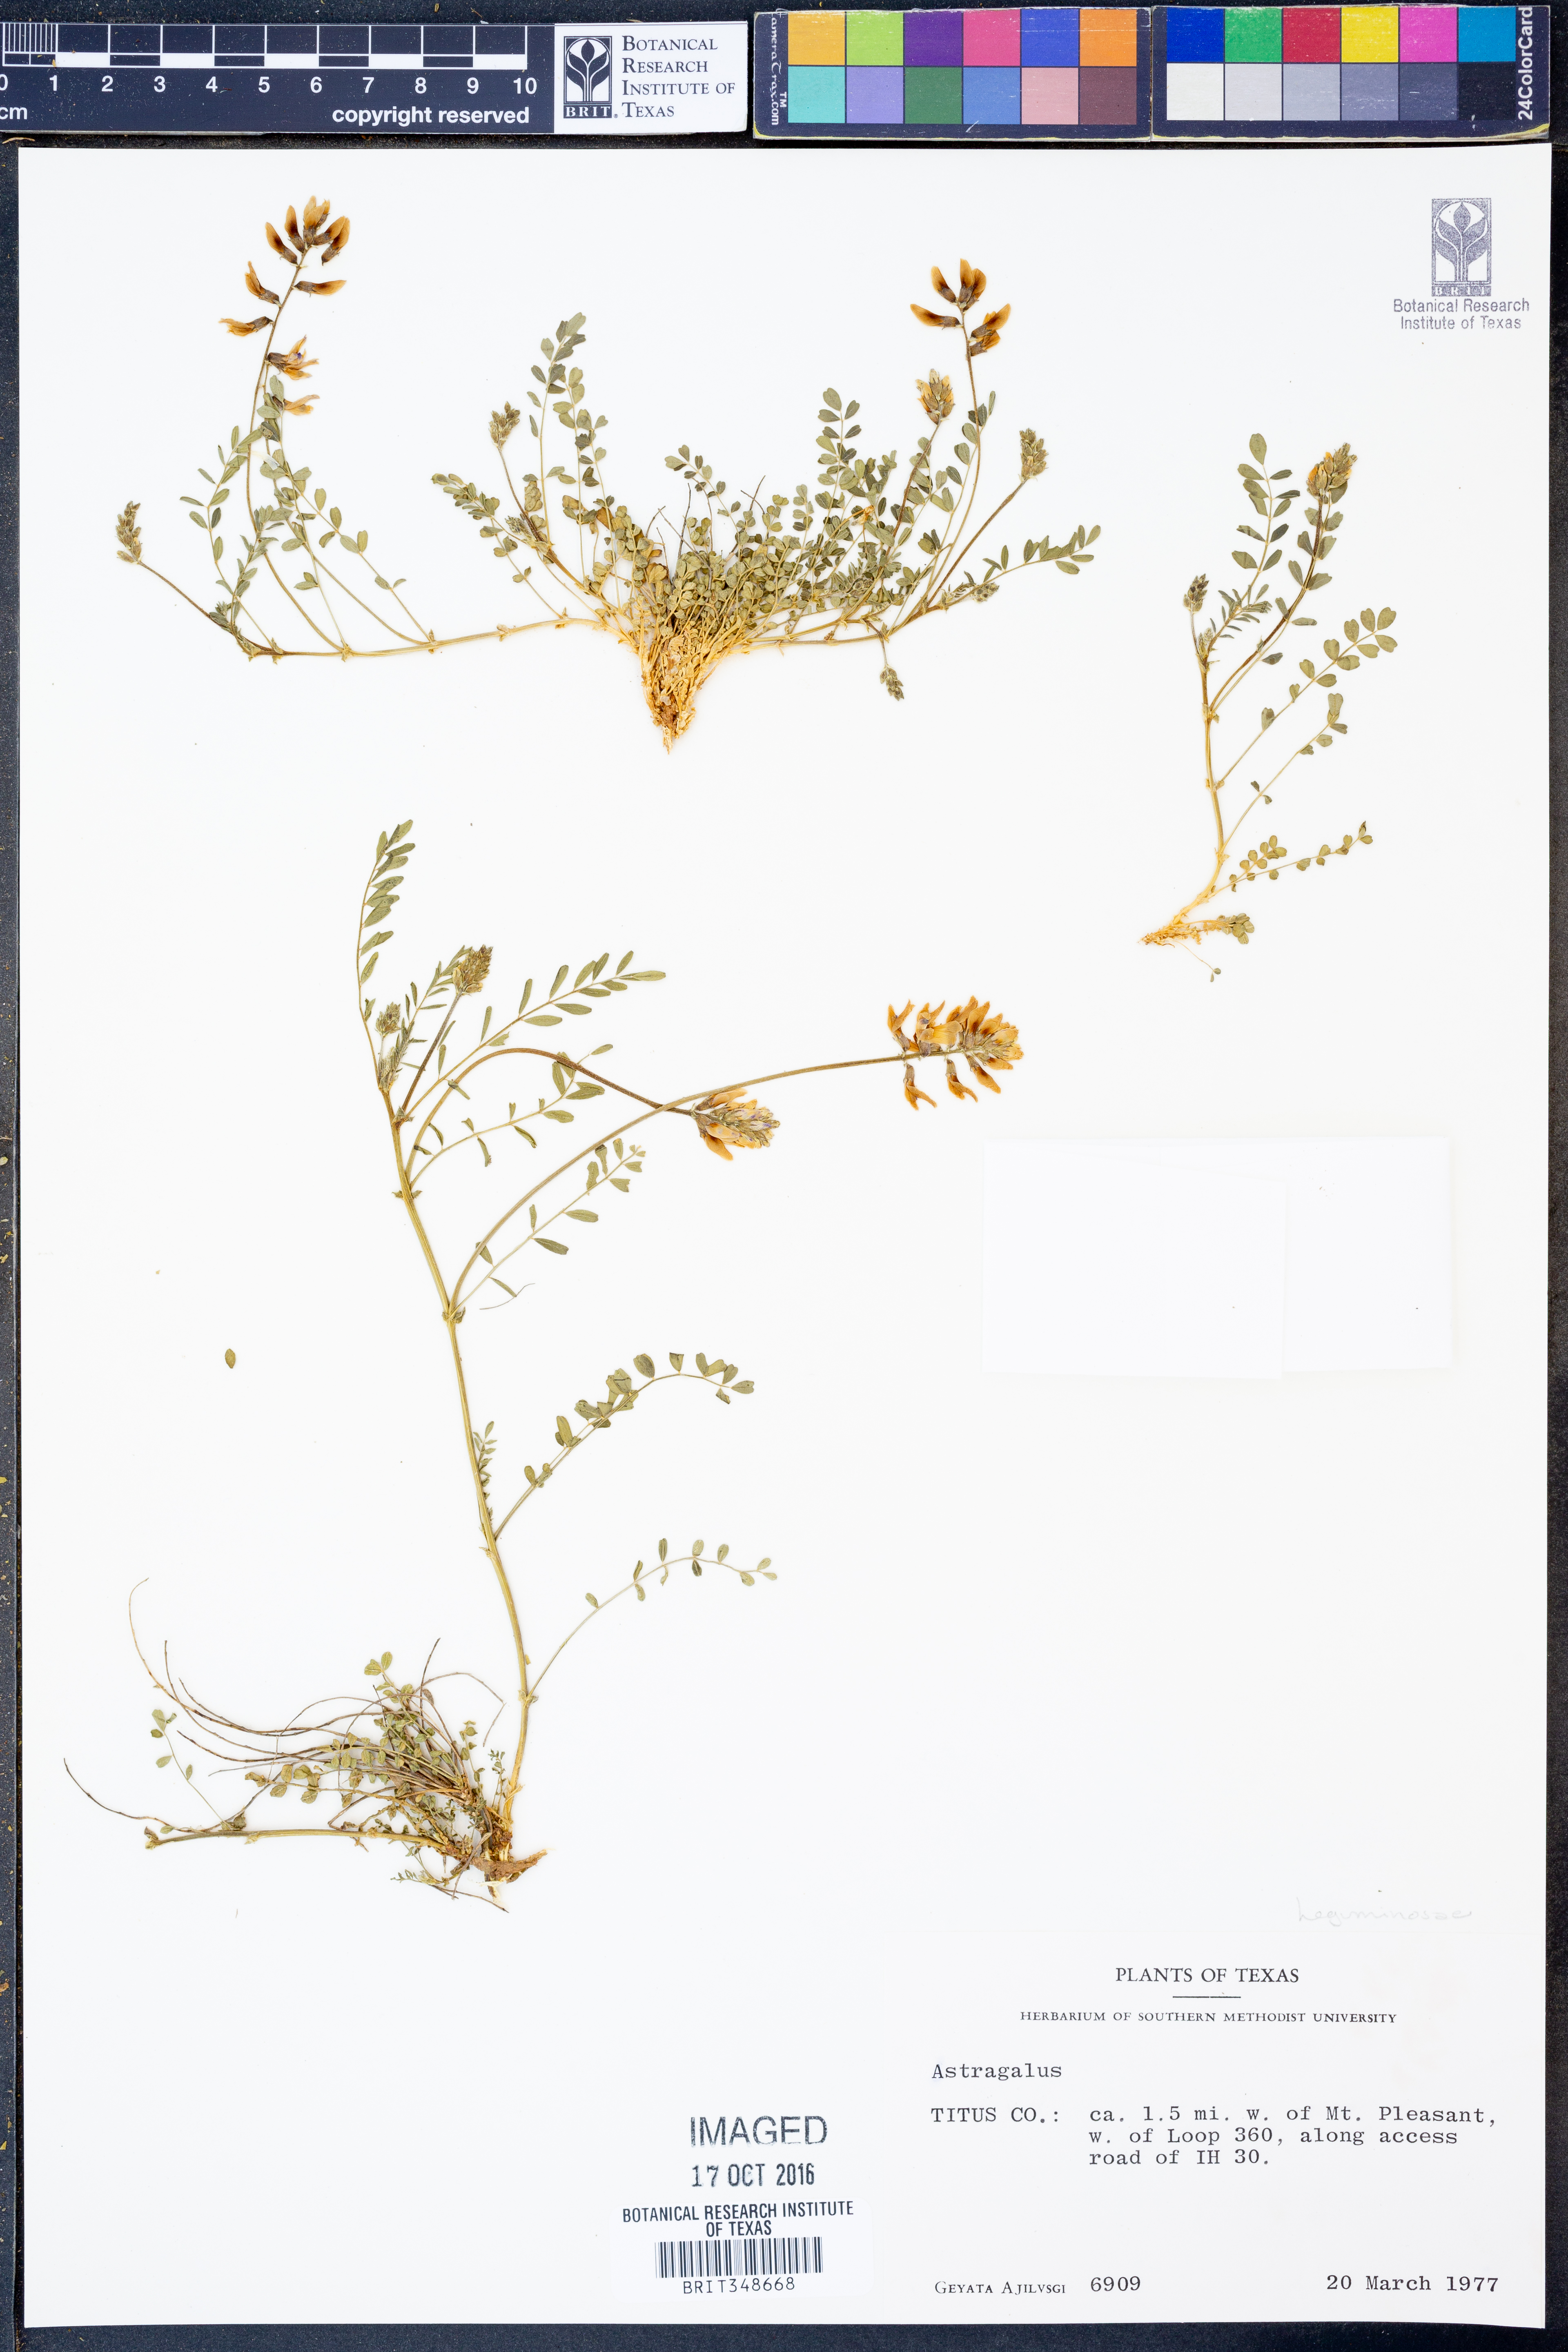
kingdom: Plantae
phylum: Tracheophyta
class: Magnoliopsida
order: Fabales
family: Fabaceae
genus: Astragalus
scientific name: Astragalus
